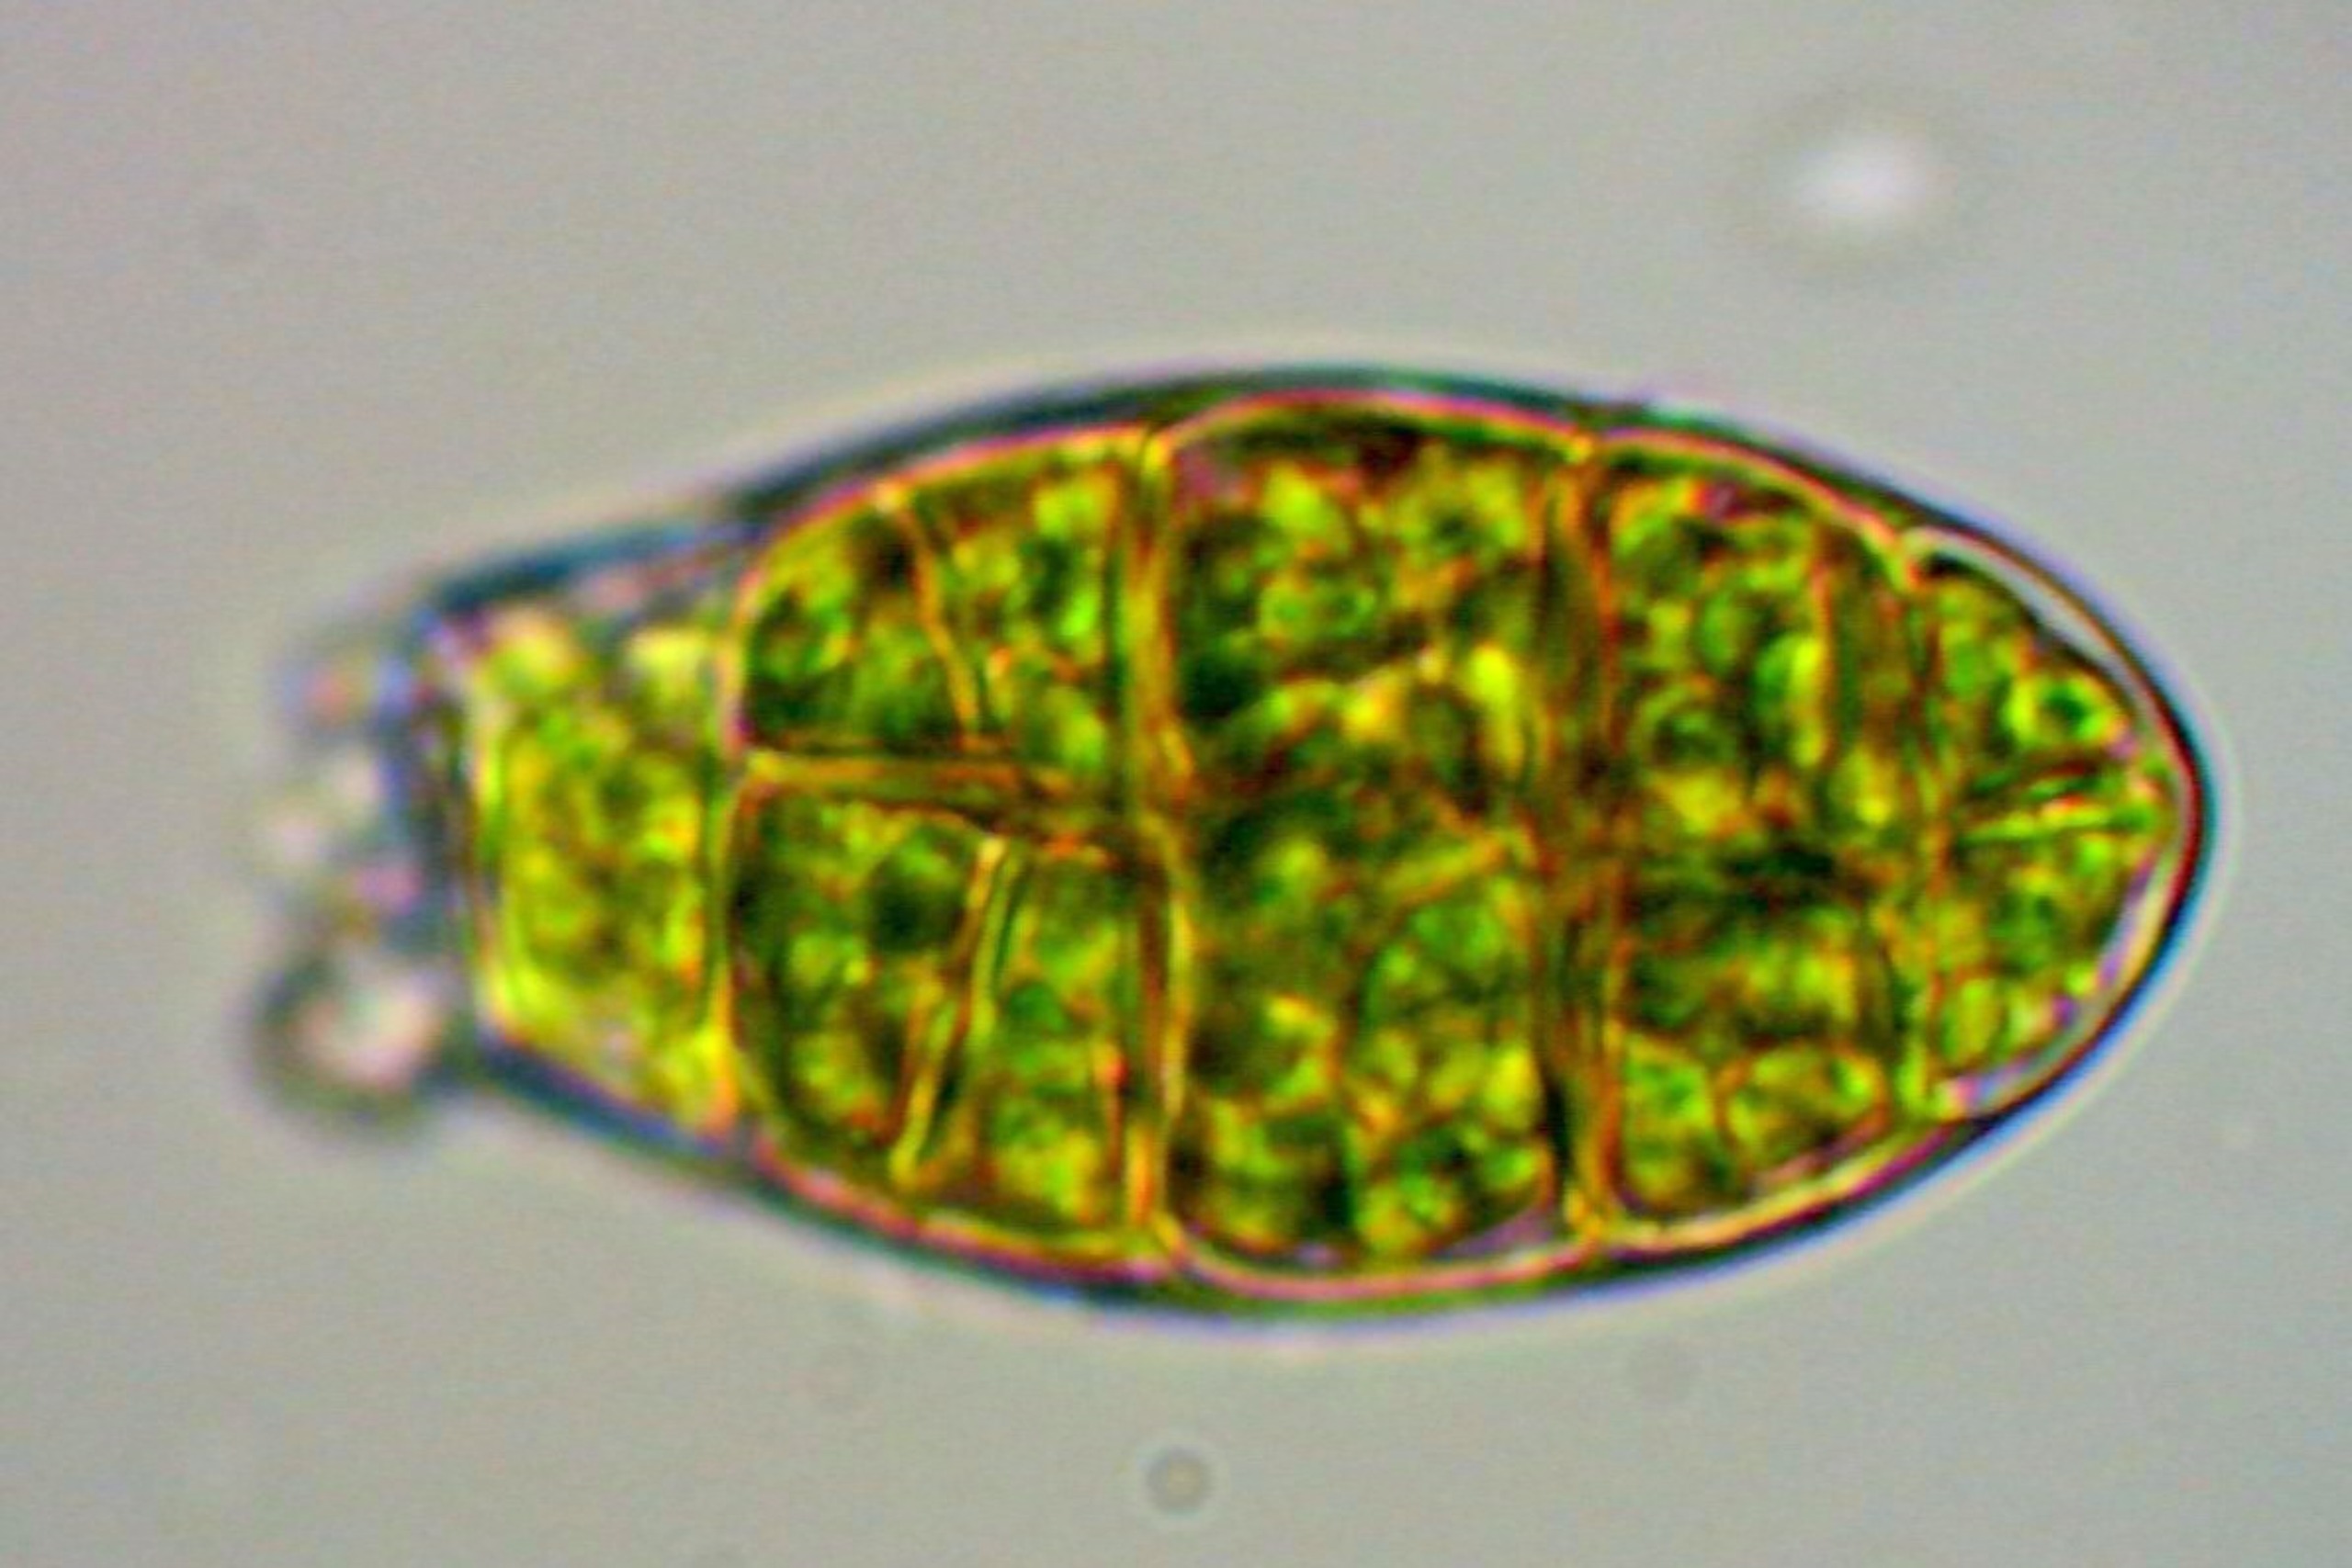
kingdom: Plantae
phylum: Bryophyta
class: Bryopsida
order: Orthotrichales
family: Orthotrichaceae
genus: Zygodon
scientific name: Zygodon viridissimus
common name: Grøn køllemos
